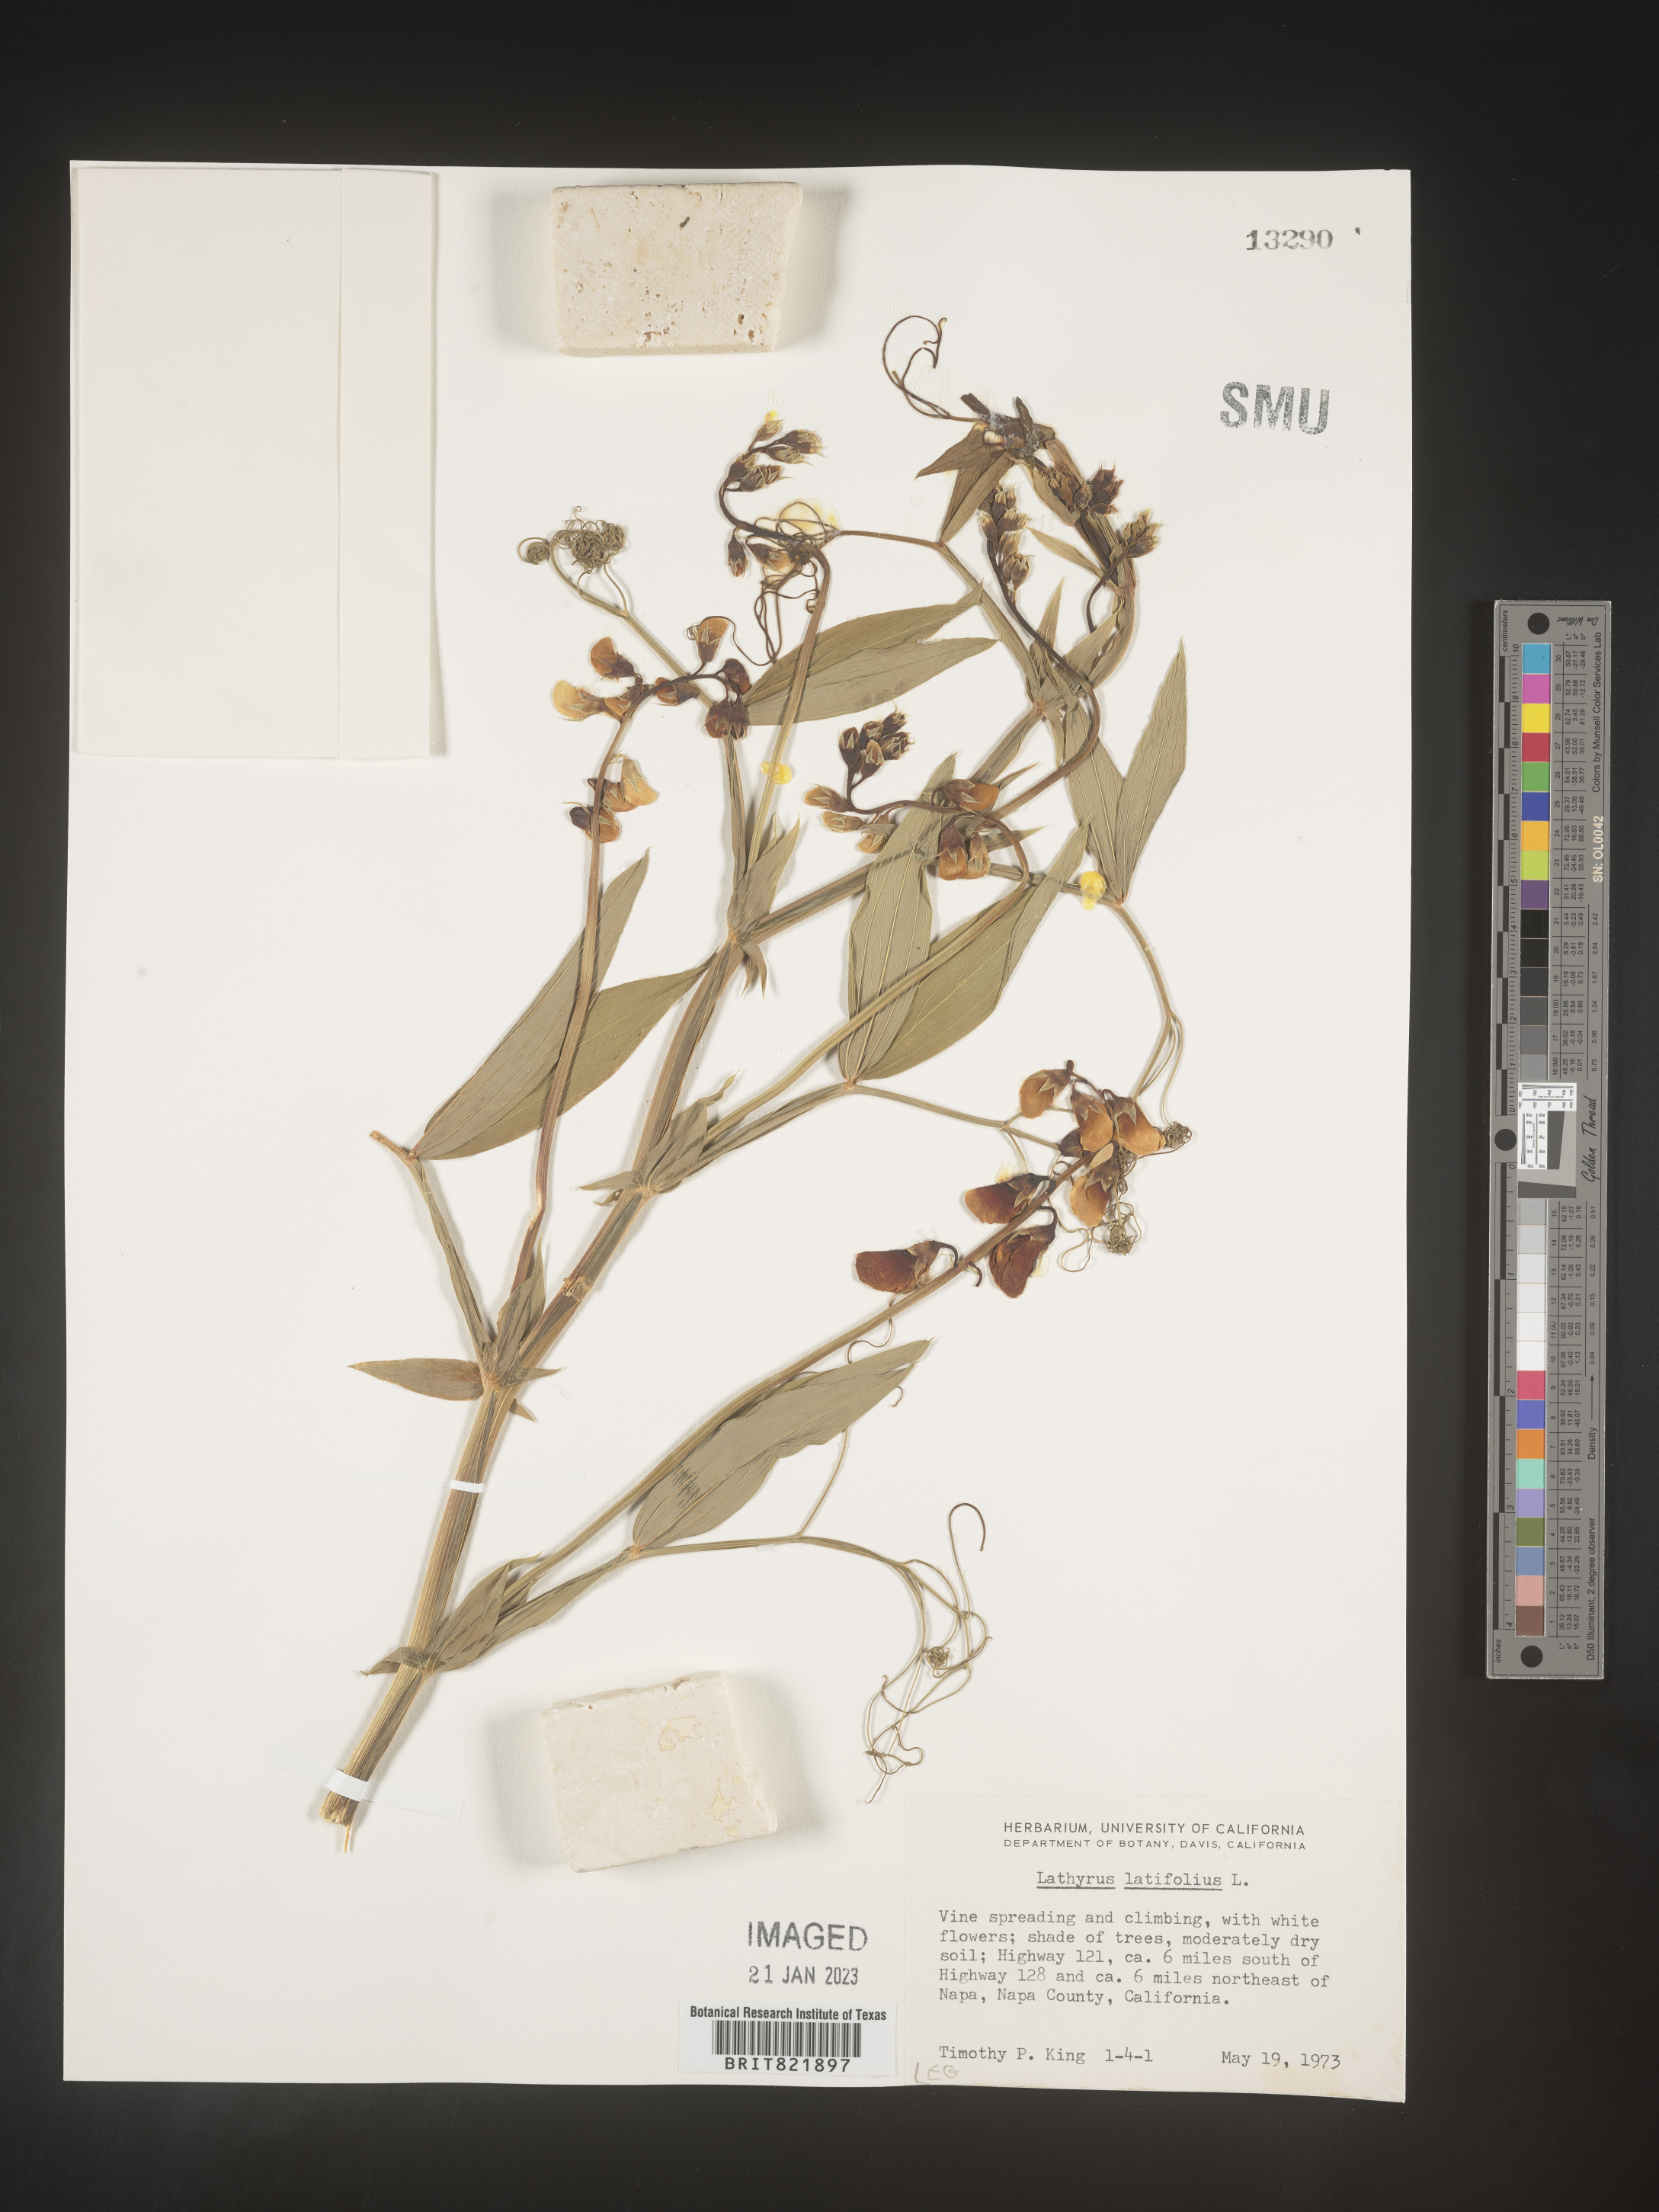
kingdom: Plantae
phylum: Tracheophyta
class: Magnoliopsida
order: Fabales
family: Fabaceae
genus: Lathyrus
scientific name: Lathyrus latifolius
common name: Perennial pea
